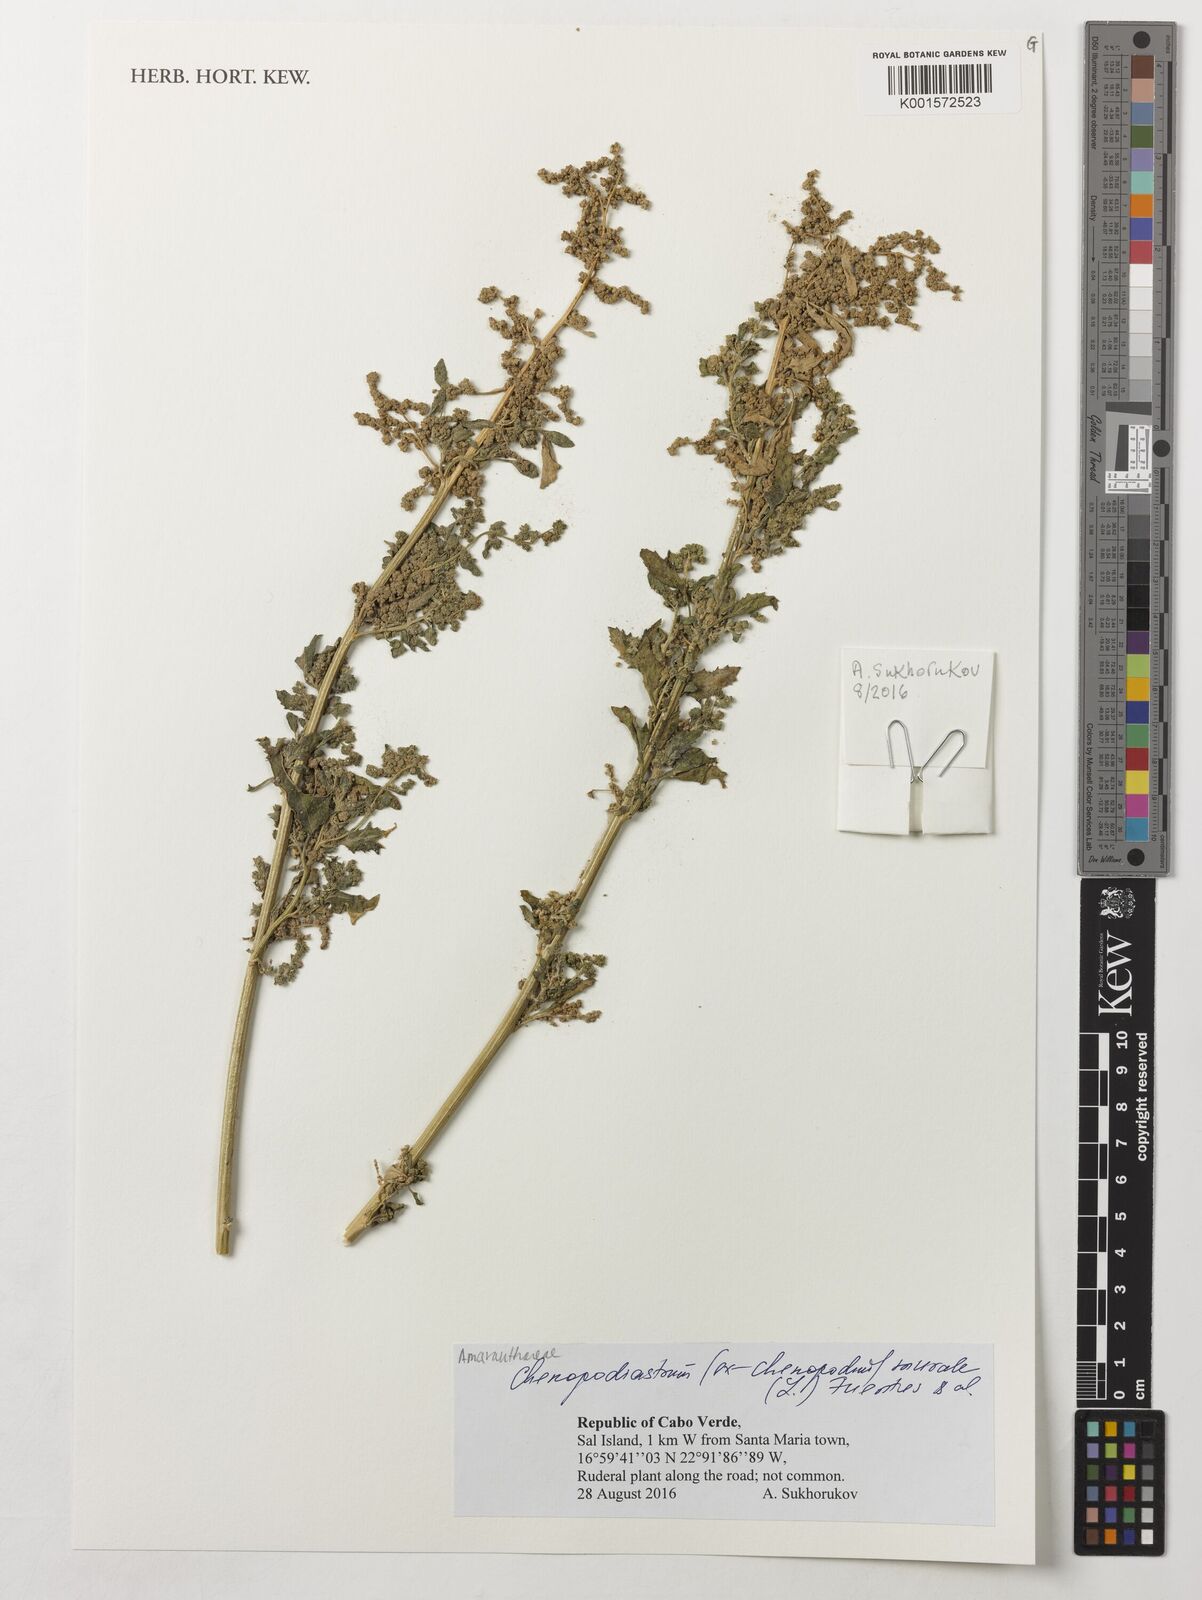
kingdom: Plantae
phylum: Tracheophyta
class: Magnoliopsida
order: Caryophyllales
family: Amaranthaceae
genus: Chenopodiastrum
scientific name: Chenopodiastrum murale
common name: Sowbane
